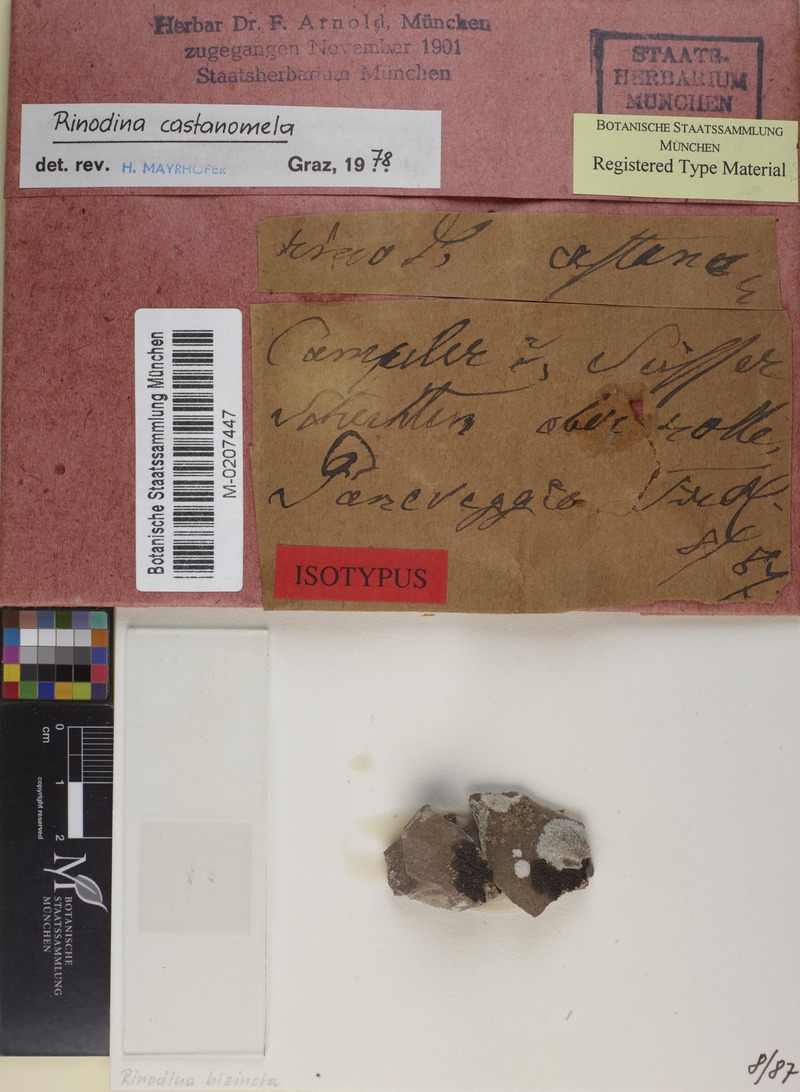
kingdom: Fungi
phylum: Ascomycota
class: Lecanoromycetes
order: Caliciales
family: Physciaceae
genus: Rinodina
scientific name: Rinodina castanomela
